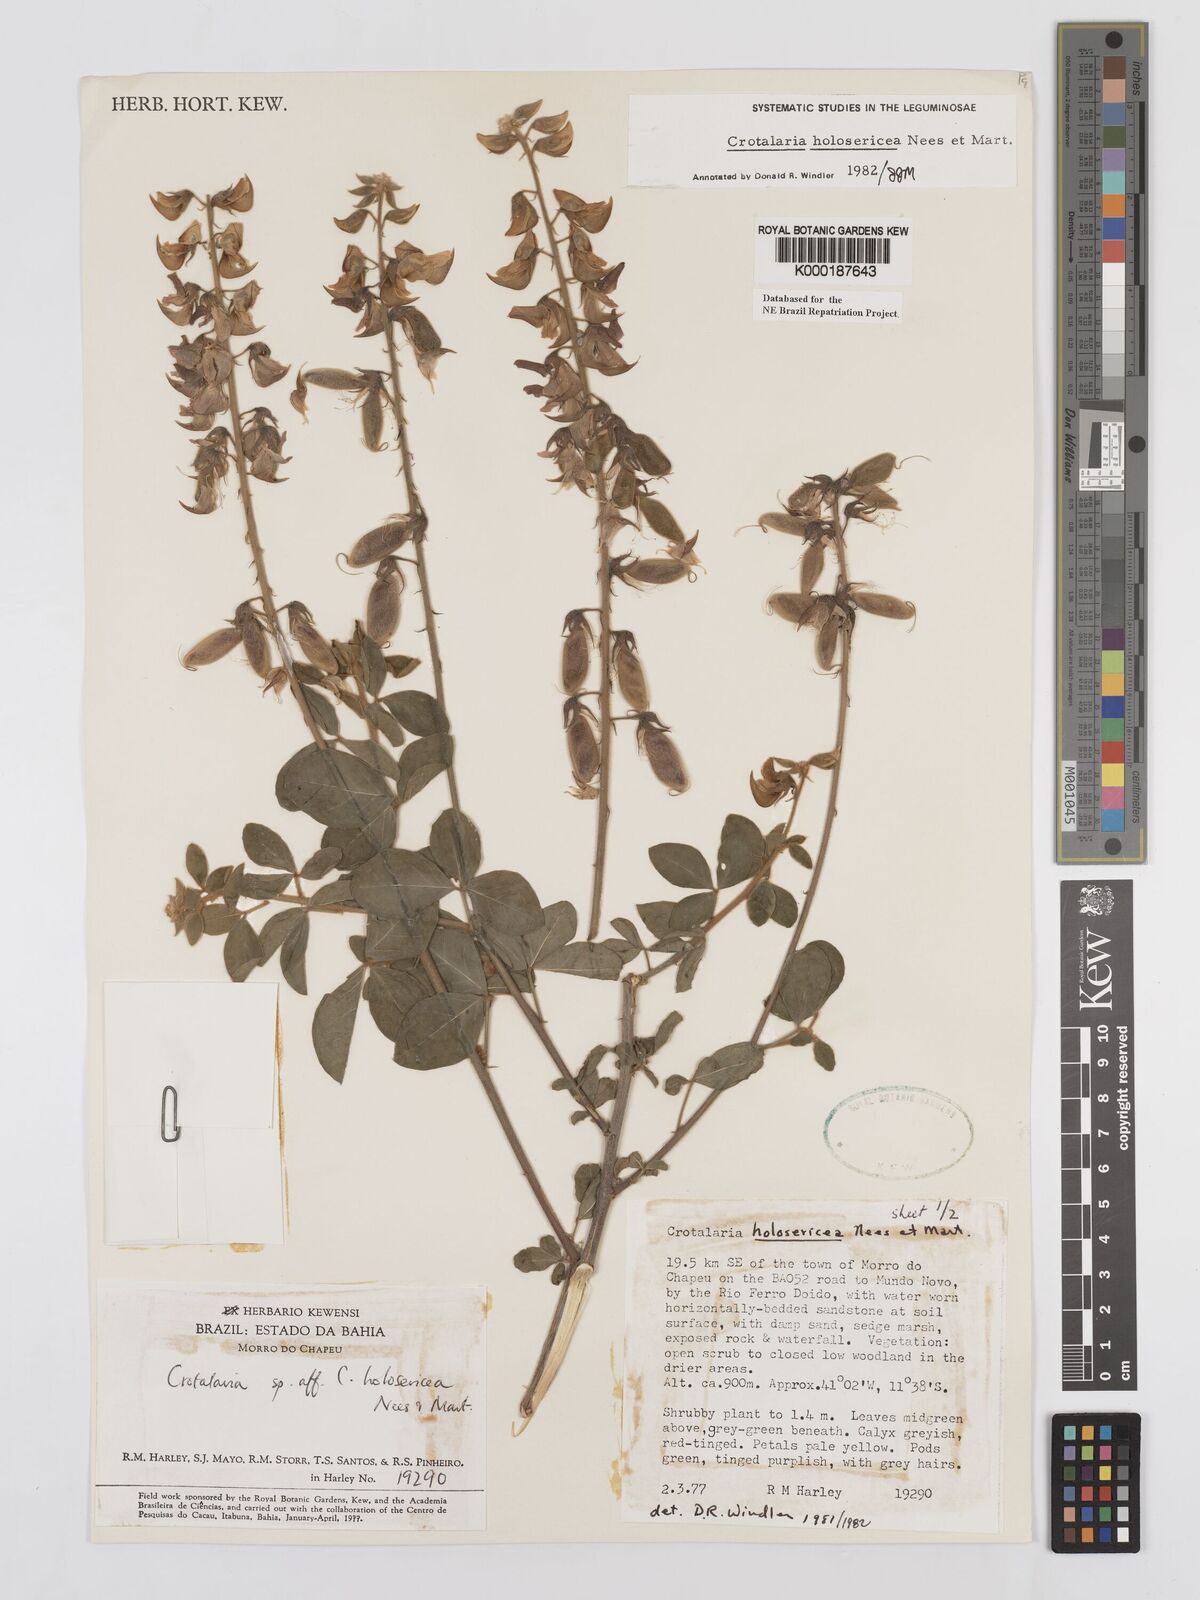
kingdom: Plantae
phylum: Tracheophyta
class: Magnoliopsida
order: Fabales
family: Fabaceae
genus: Crotalaria
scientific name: Crotalaria holosericea
